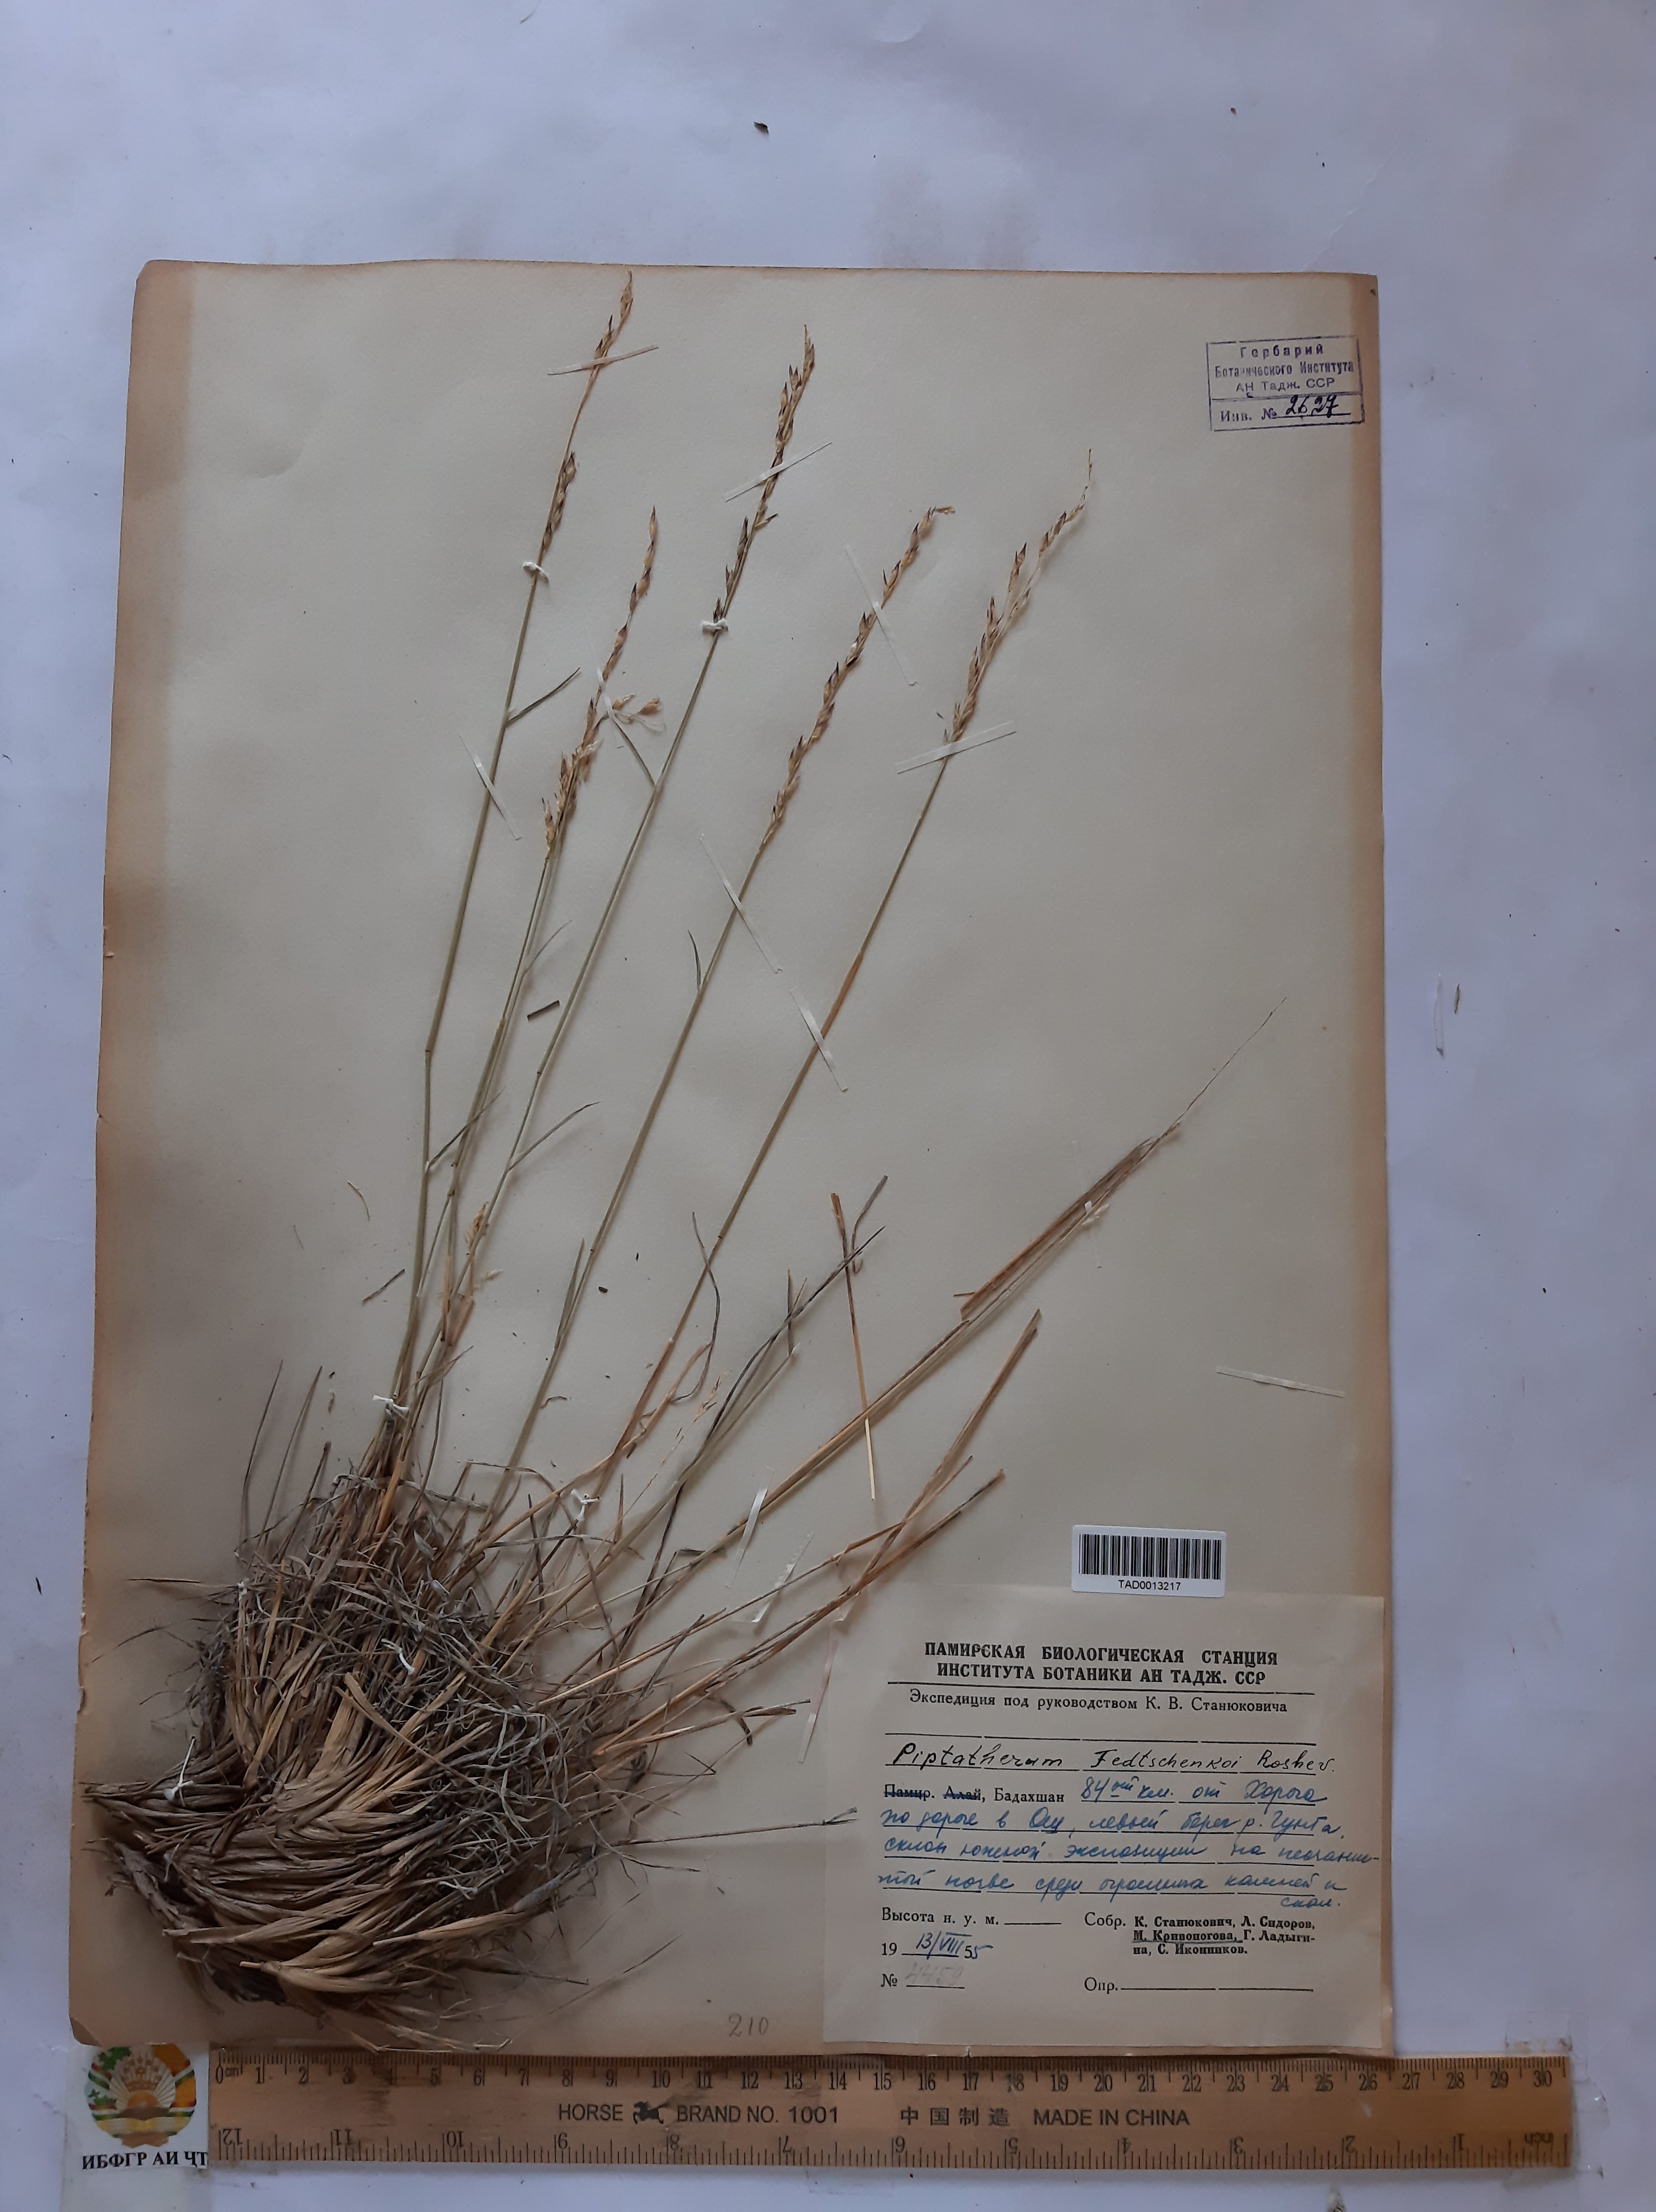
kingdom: Plantae
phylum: Tracheophyta
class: Liliopsida
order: Poales
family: Poaceae
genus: Piptatherum
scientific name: Piptatherum sogdianum
